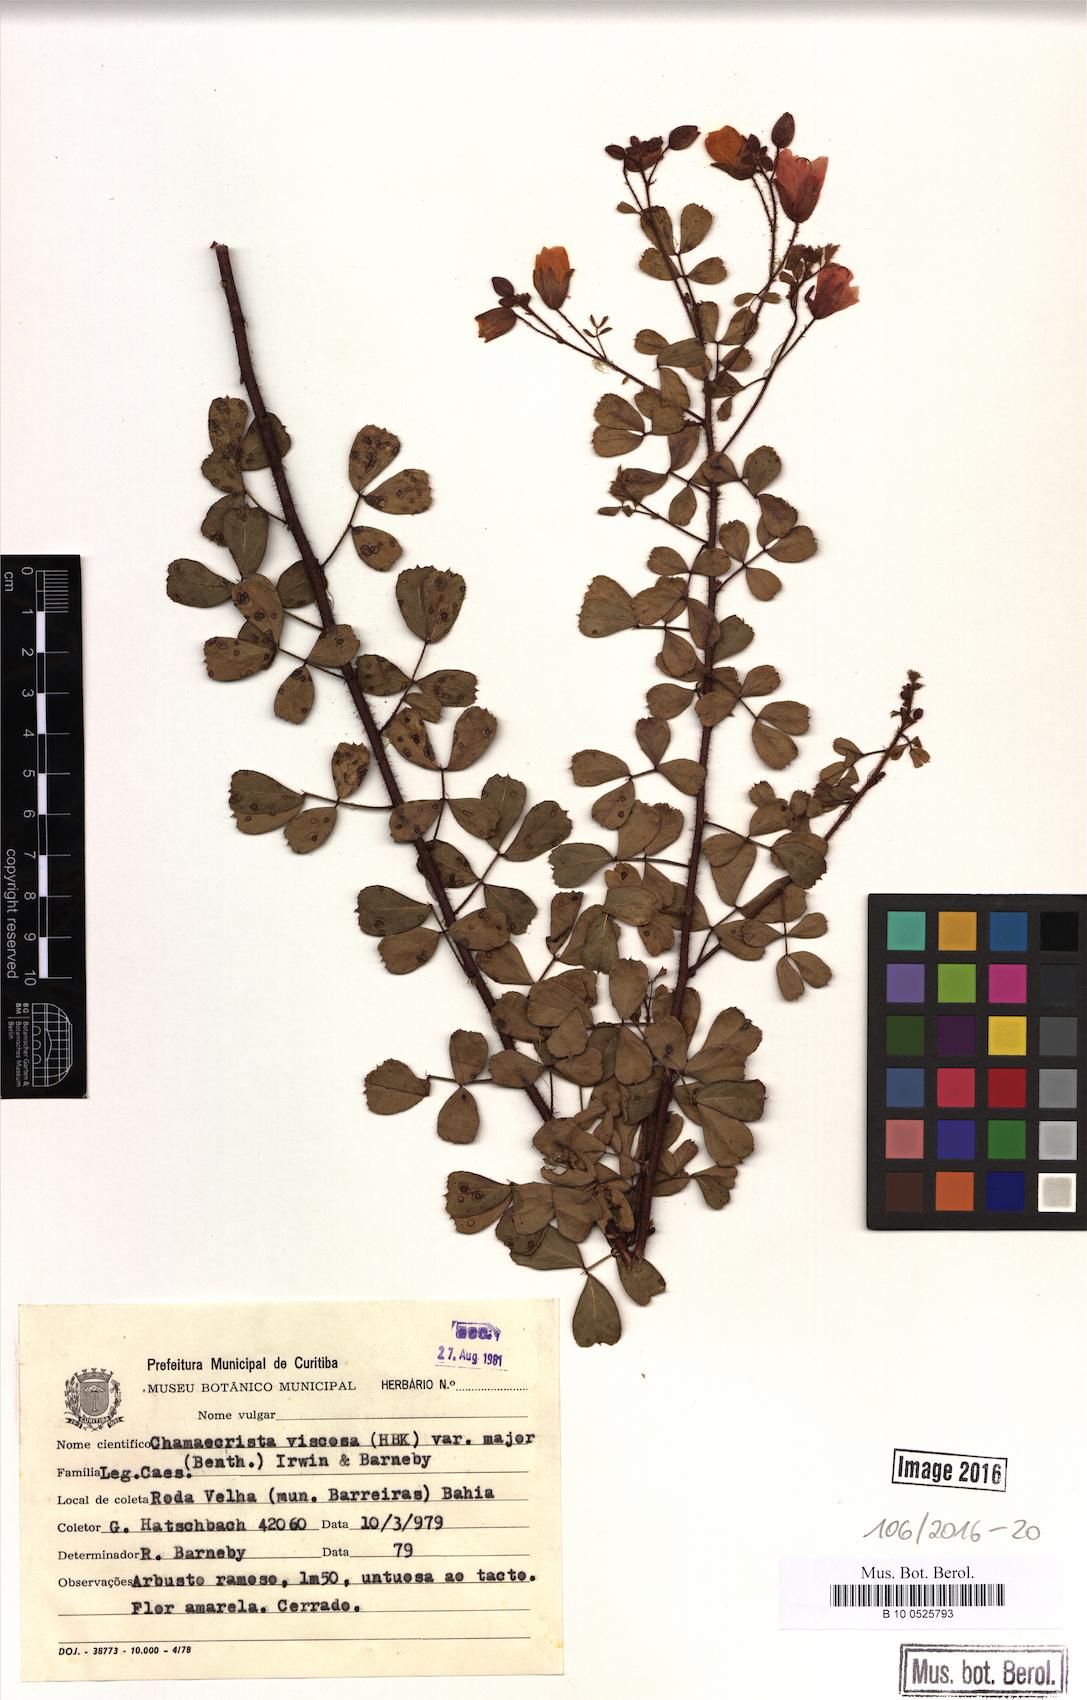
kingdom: Plantae
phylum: Tracheophyta
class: Magnoliopsida
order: Fabales
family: Fabaceae
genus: Chamaecrista
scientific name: Chamaecrista viscosa
